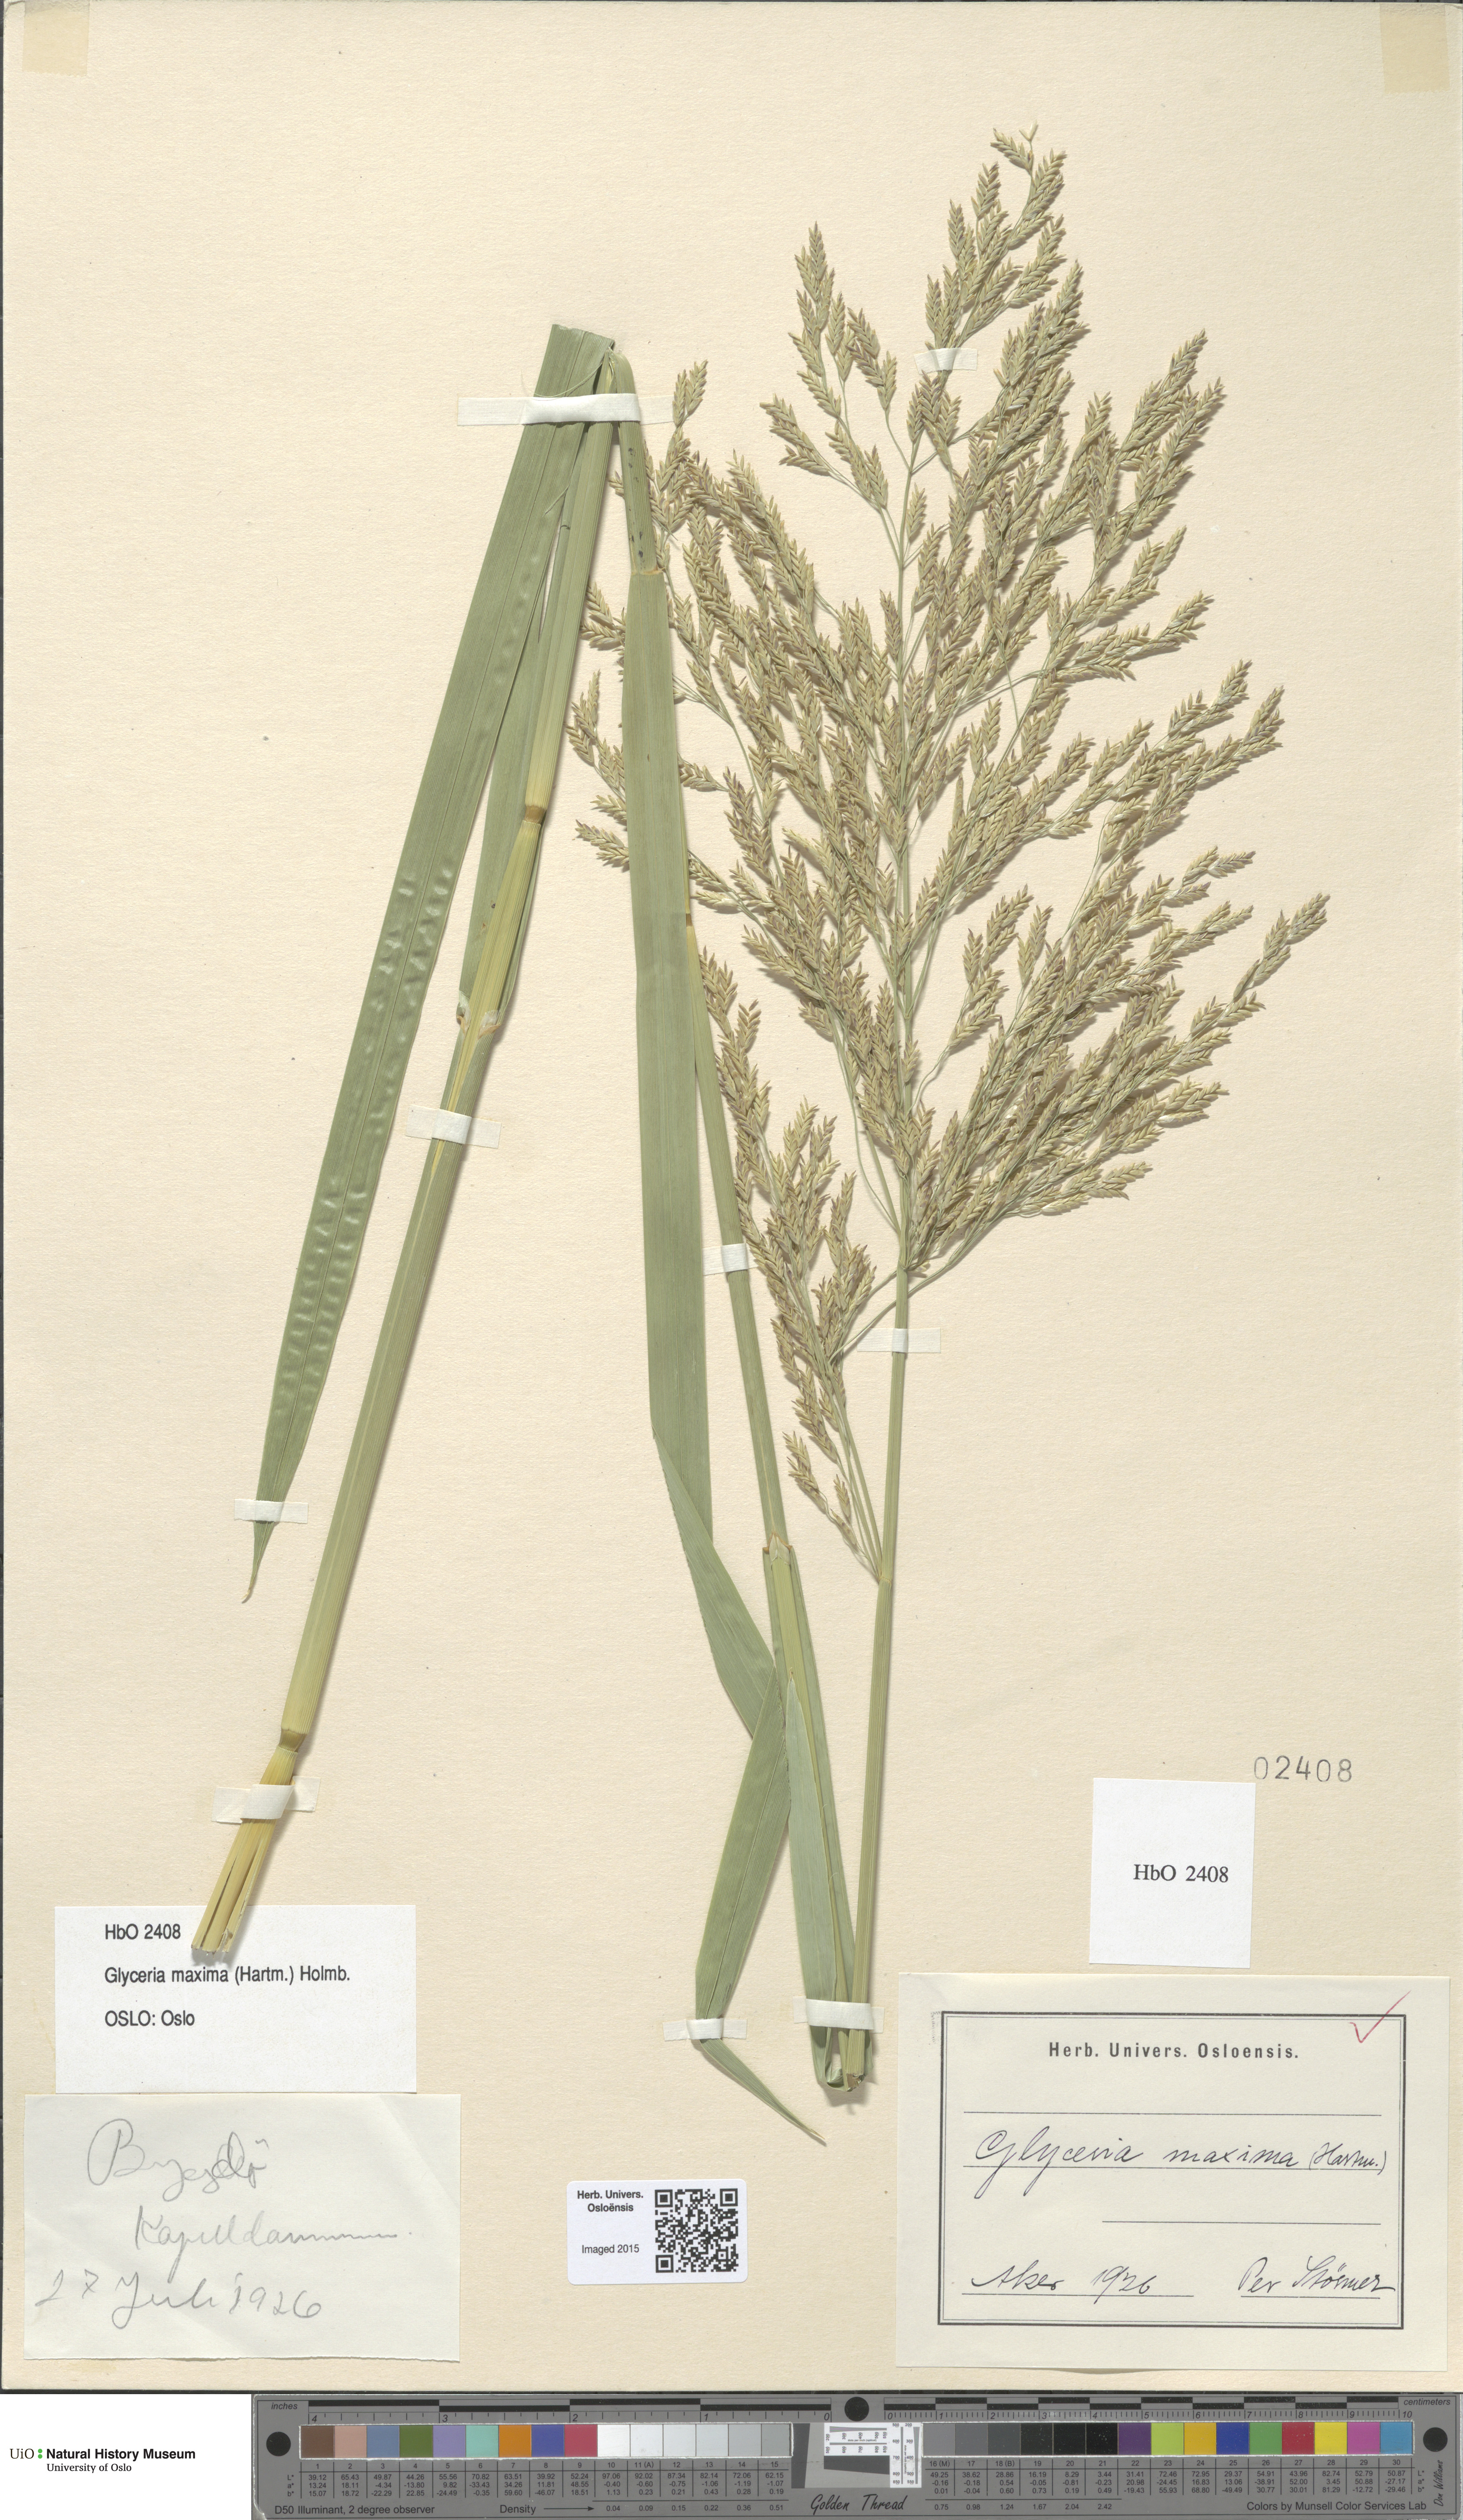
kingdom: Plantae
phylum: Tracheophyta
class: Liliopsida
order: Poales
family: Poaceae
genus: Glyceria
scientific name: Glyceria maxima
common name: Reed mannagrass
